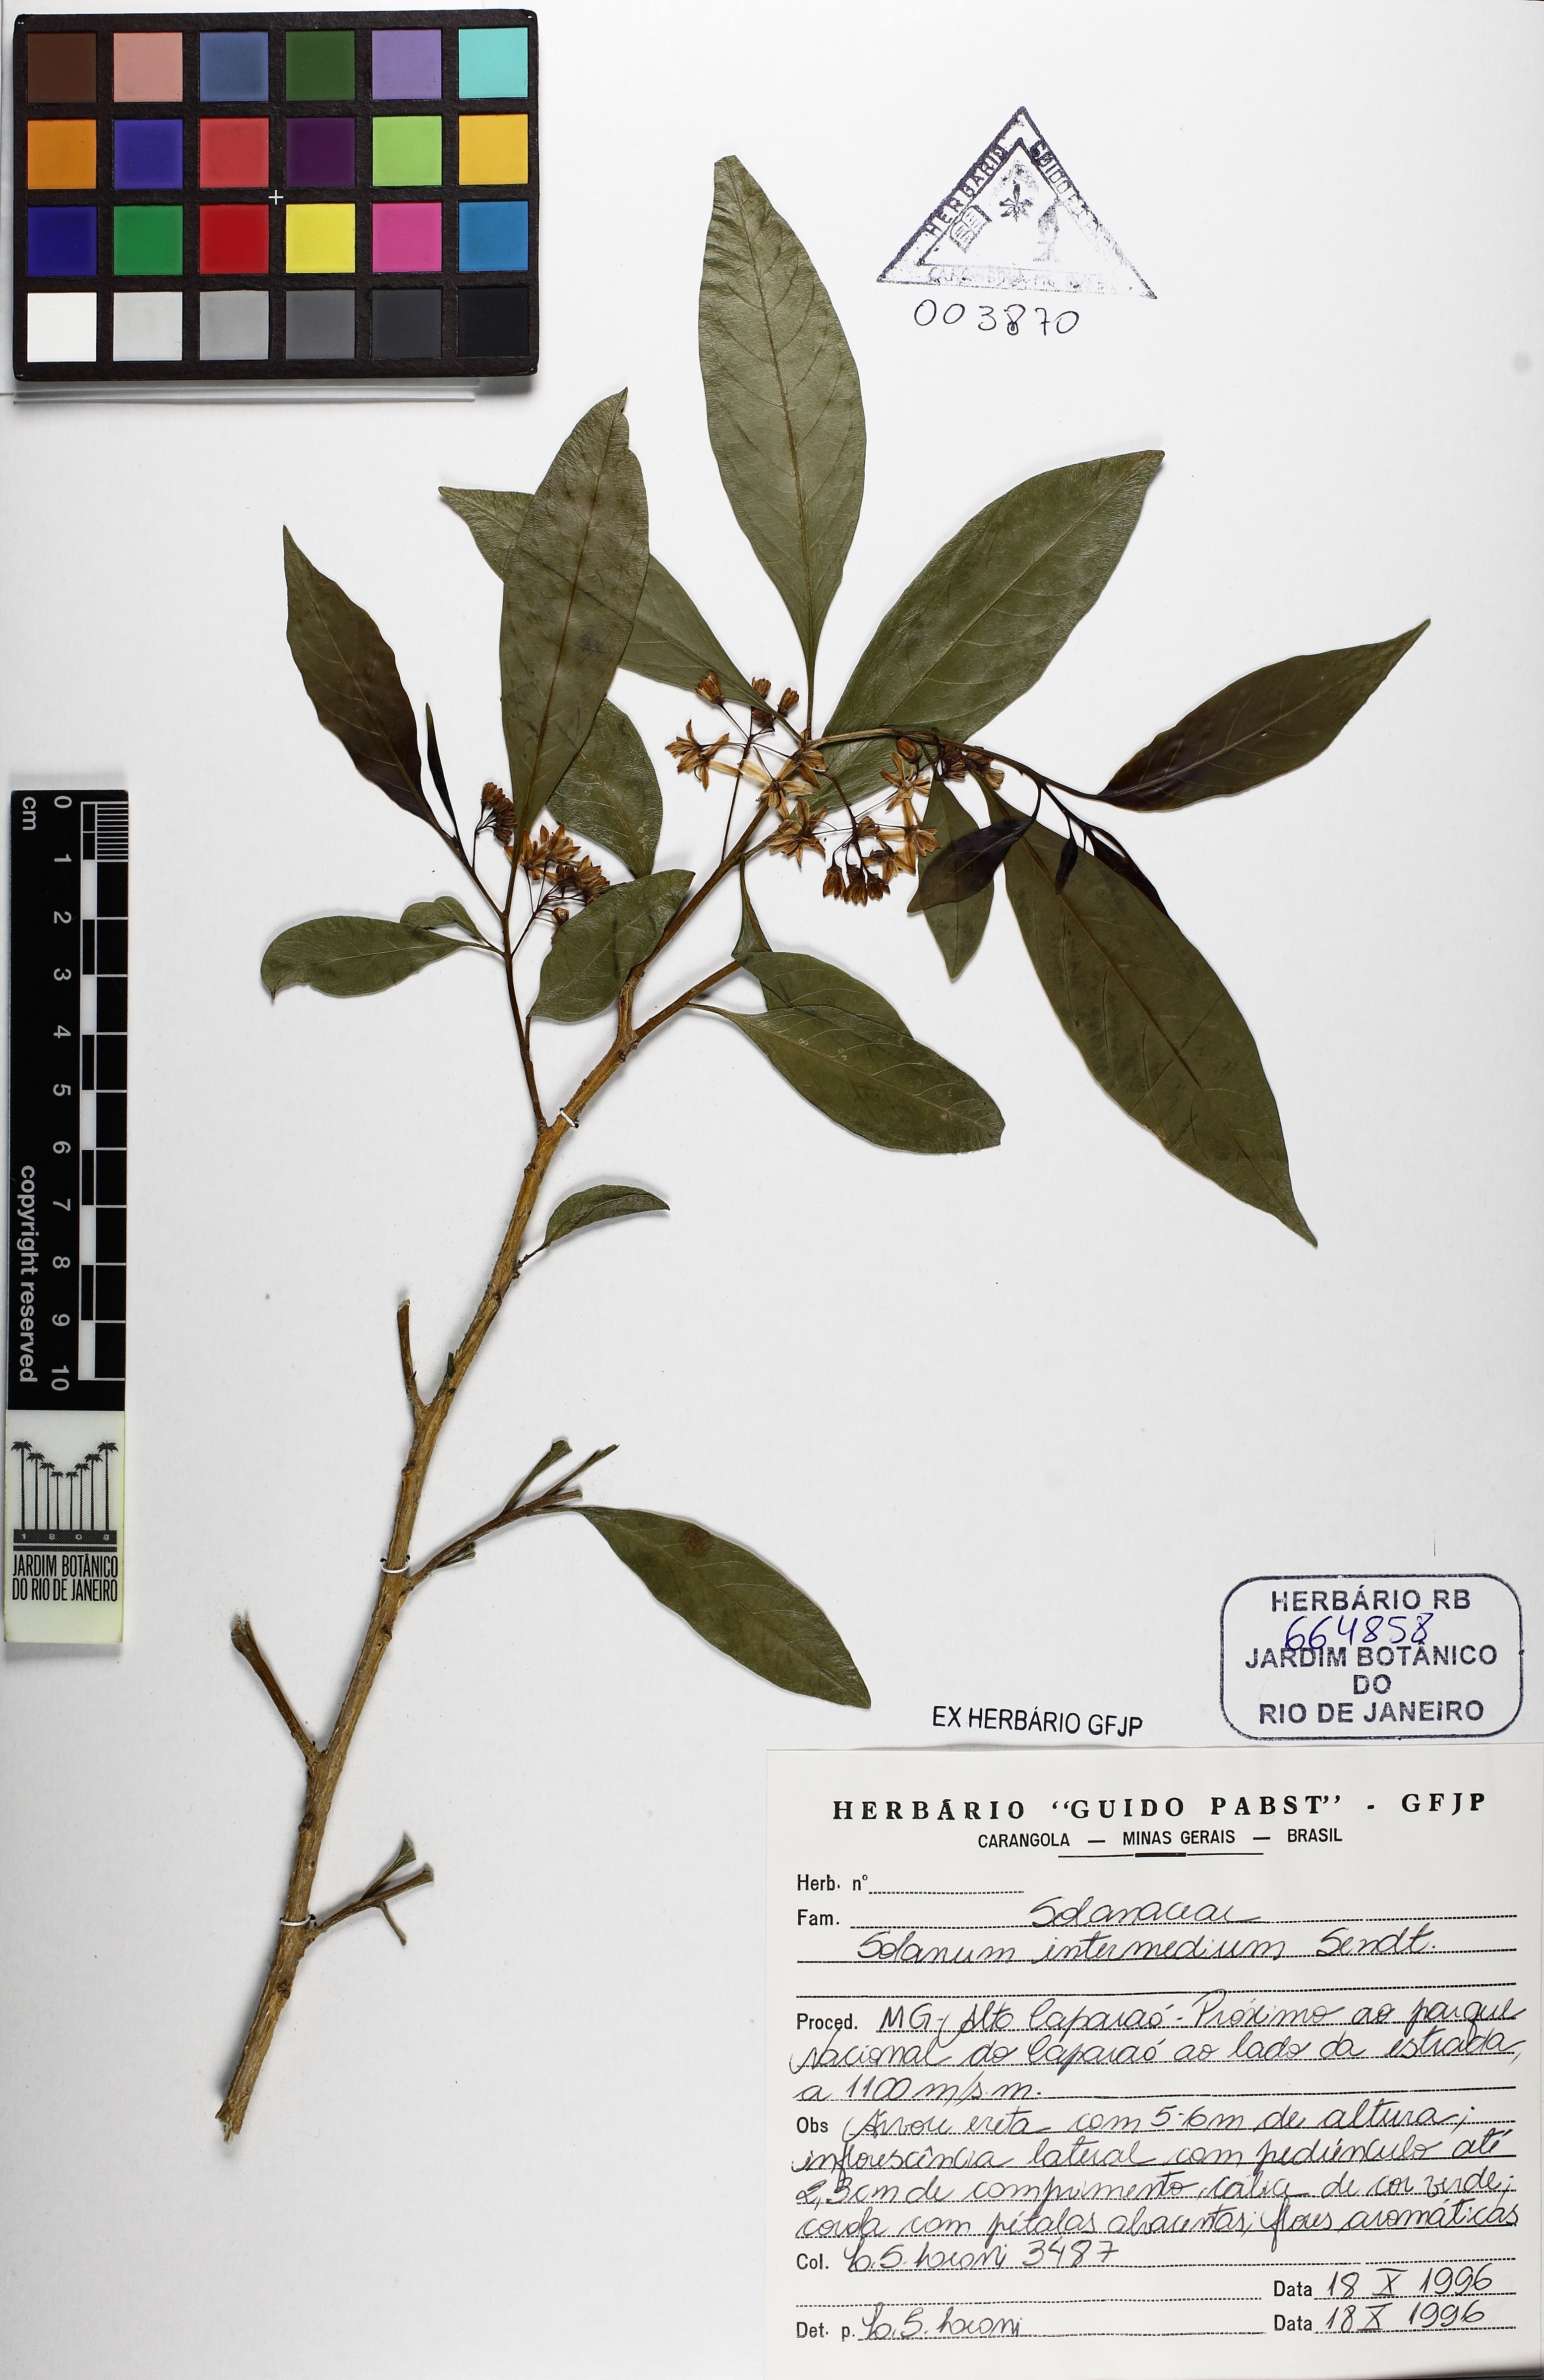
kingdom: Plantae
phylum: Tracheophyta
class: Magnoliopsida
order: Solanales
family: Solanaceae
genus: Solanum
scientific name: Solanum verticillatum
